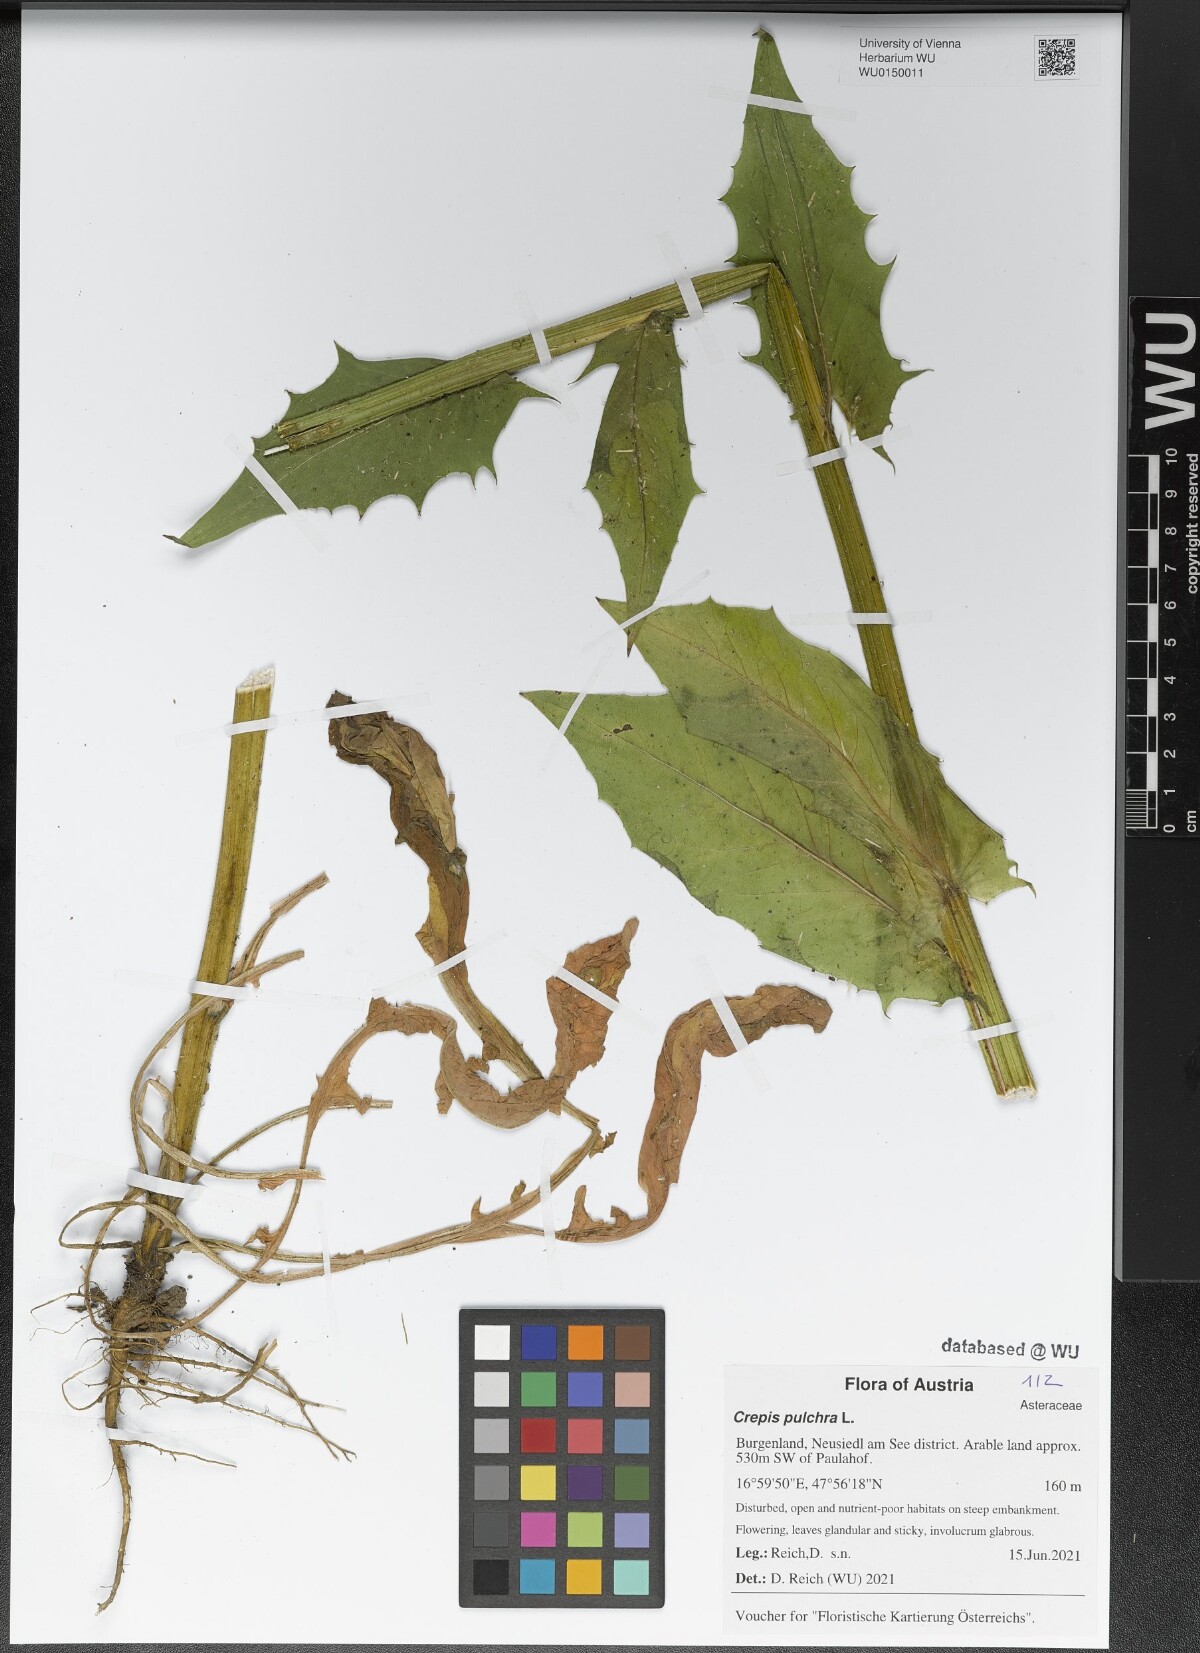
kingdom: Plantae
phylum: Tracheophyta
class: Magnoliopsida
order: Asterales
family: Asteraceae
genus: Crepis
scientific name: Crepis pulchra
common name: Hawk's-beard
